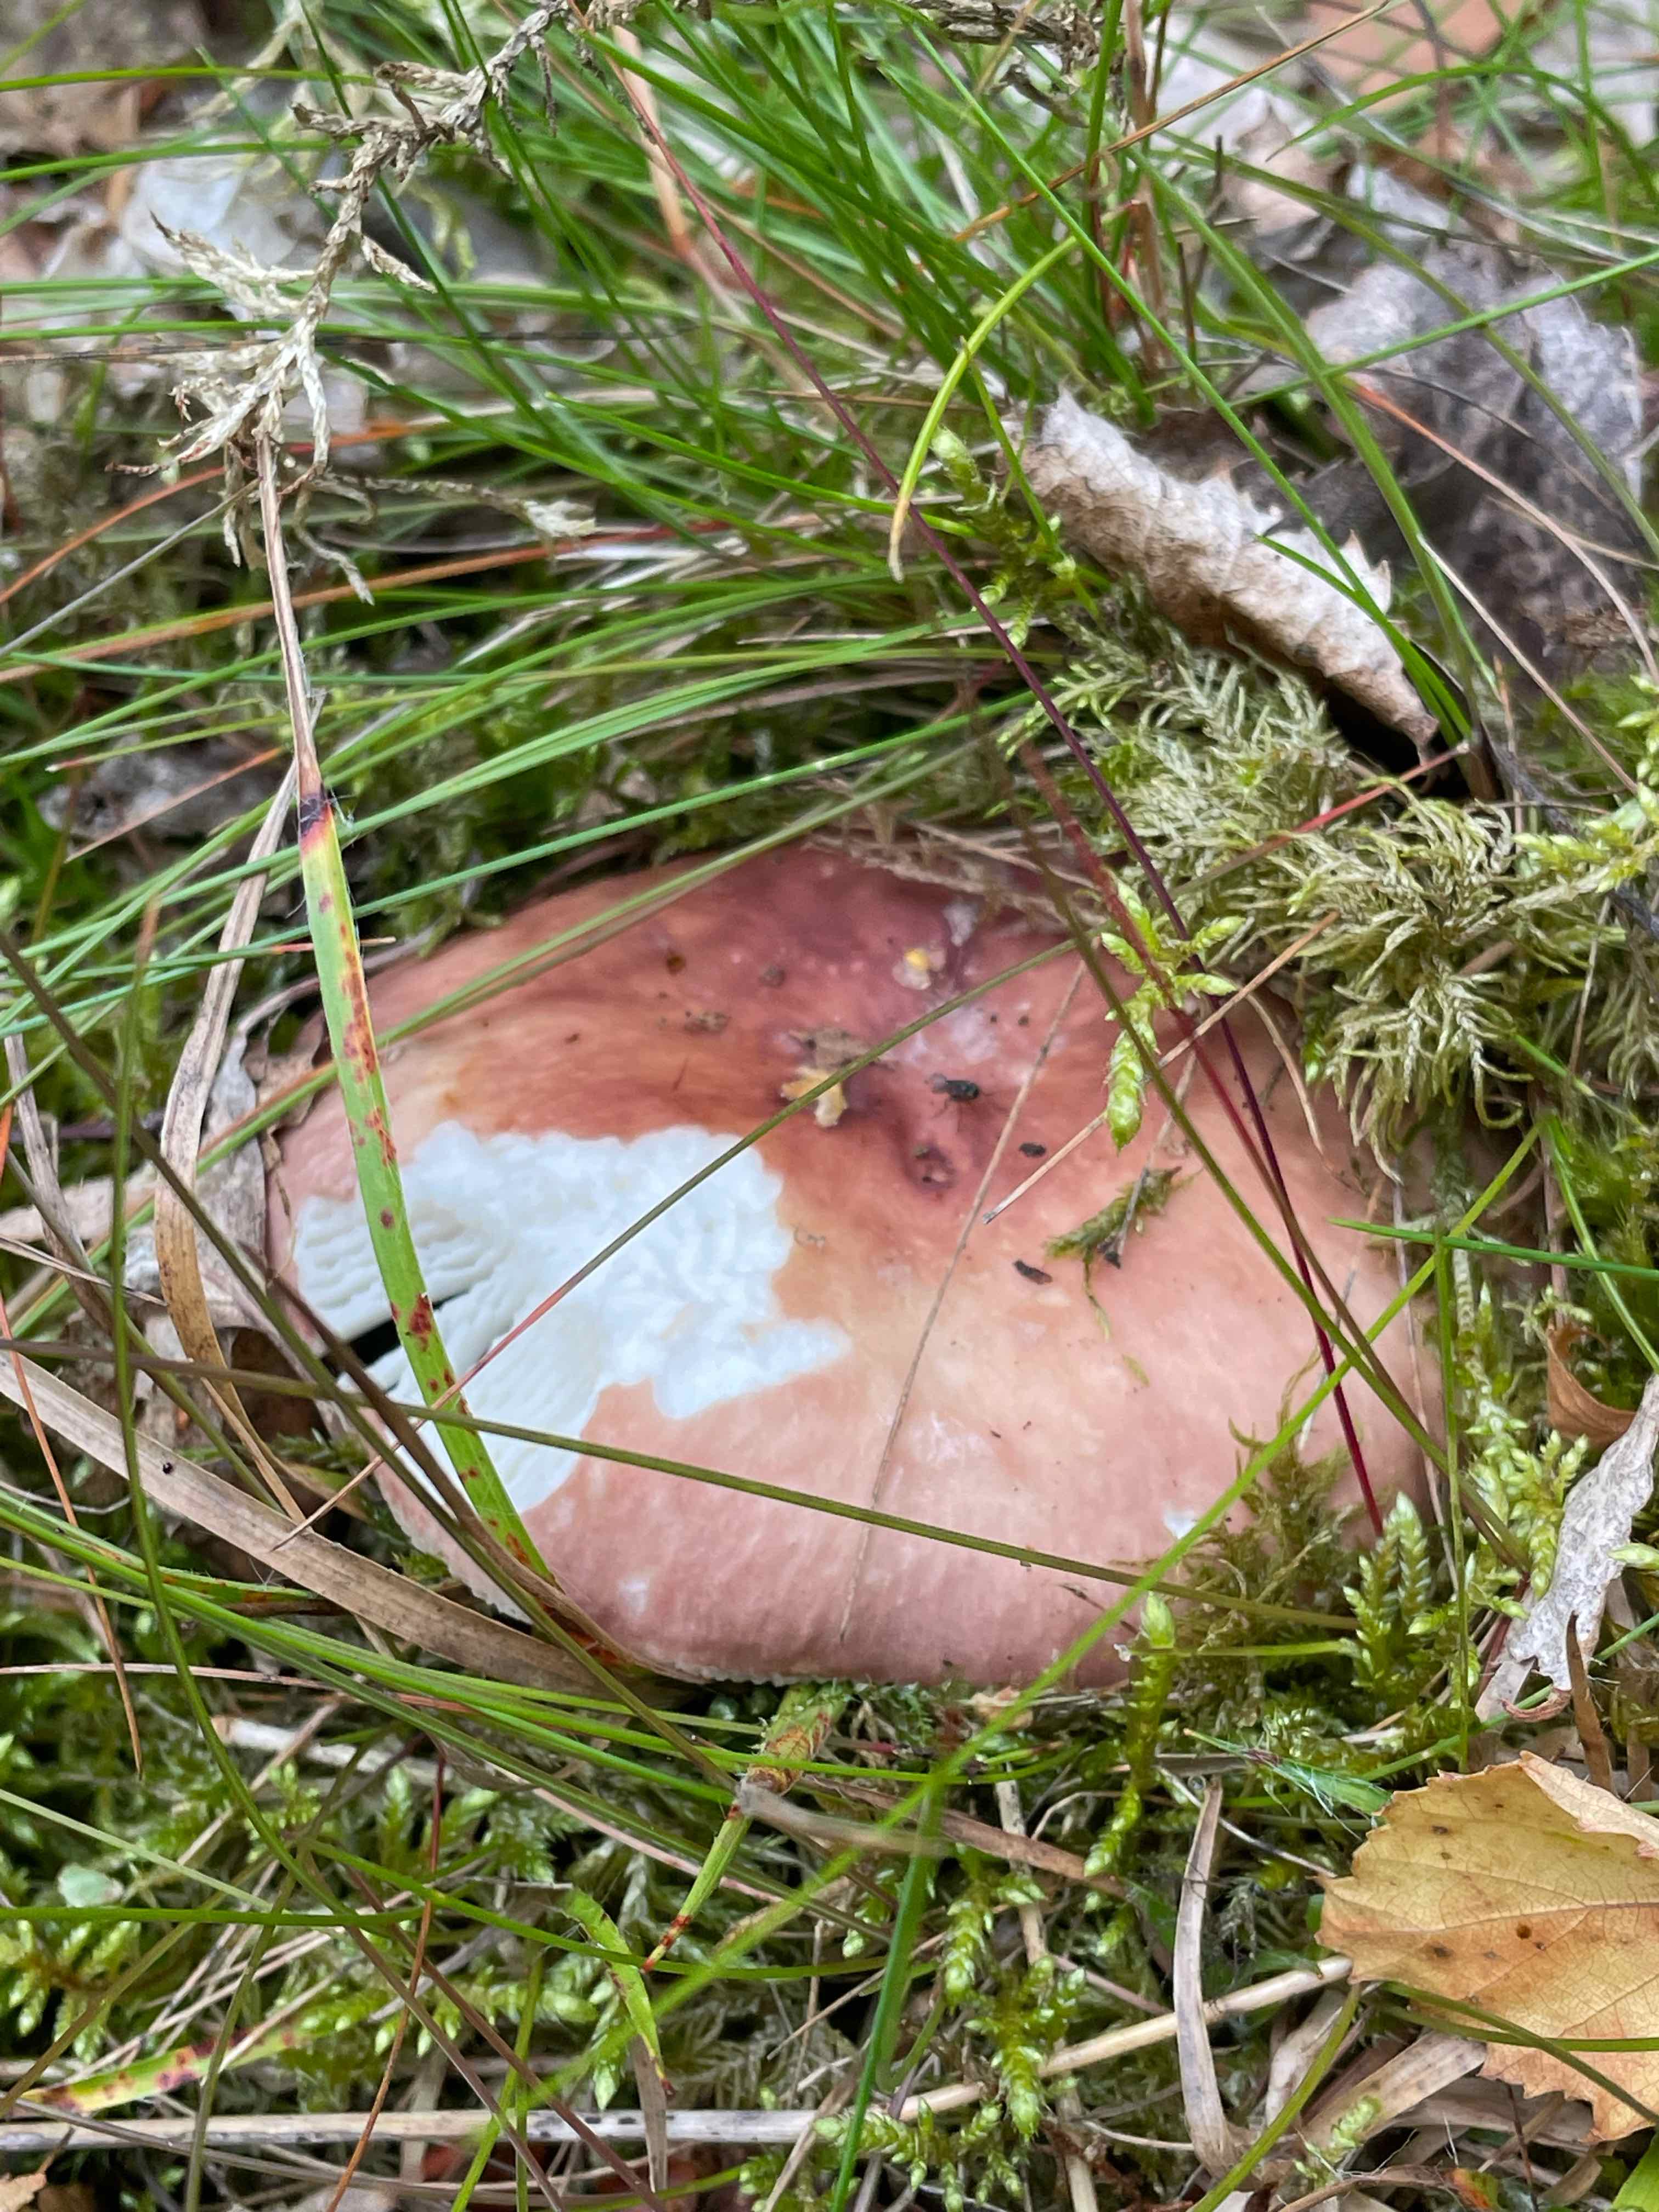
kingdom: Fungi
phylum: Basidiomycota
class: Agaricomycetes
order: Russulales
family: Russulaceae
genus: Russula
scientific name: Russula
